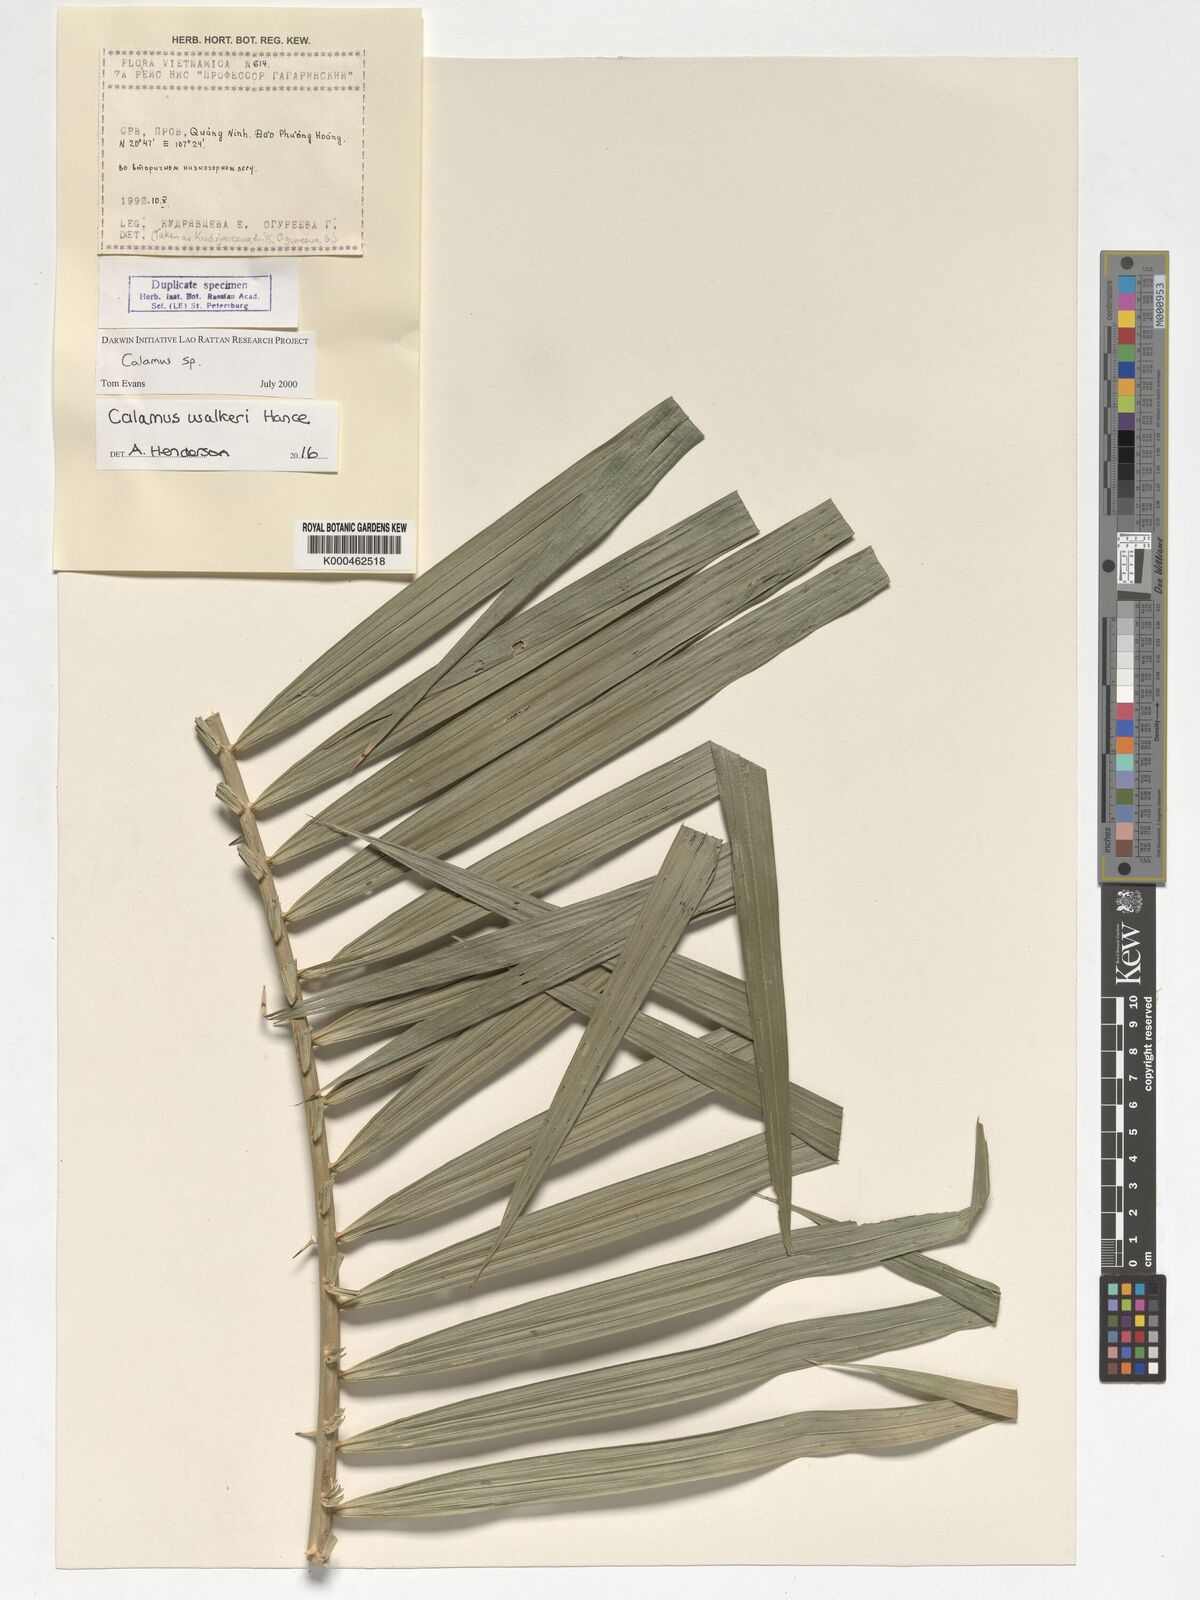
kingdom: Plantae
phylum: Tracheophyta
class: Liliopsida
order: Arecales
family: Arecaceae
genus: Calamus
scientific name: Calamus walkeri
